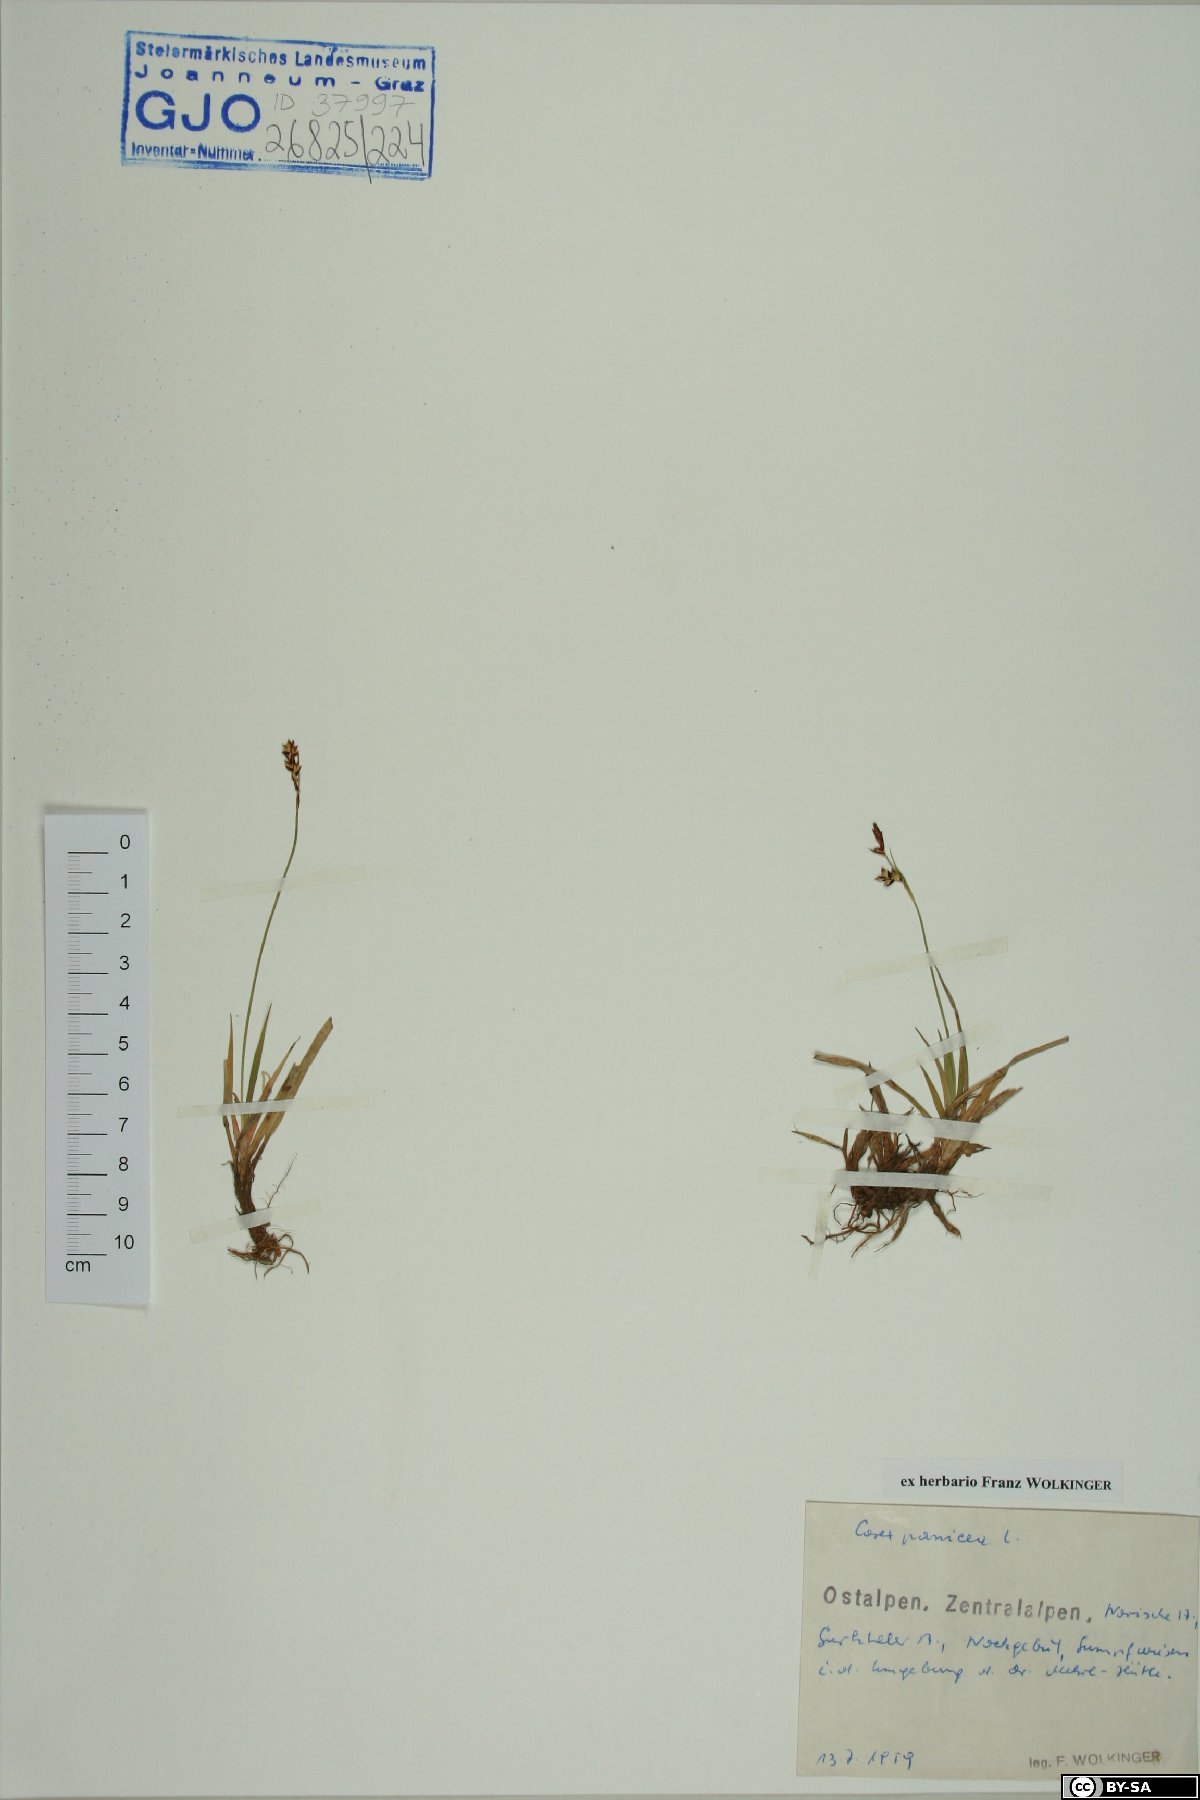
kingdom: Plantae
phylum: Tracheophyta
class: Liliopsida
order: Poales
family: Cyperaceae
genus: Carex
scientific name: Carex panicea
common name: Carnation sedge
